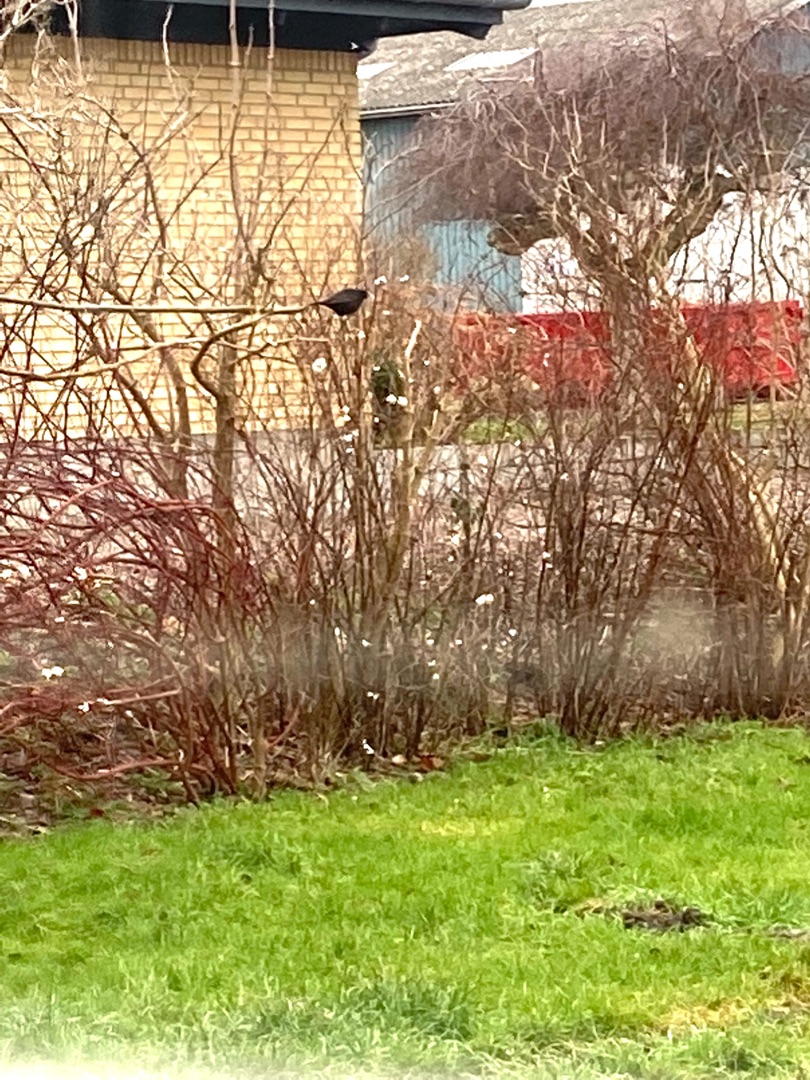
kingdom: Animalia
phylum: Chordata
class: Aves
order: Passeriformes
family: Turdidae
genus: Turdus
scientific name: Turdus merula
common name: Solsort
